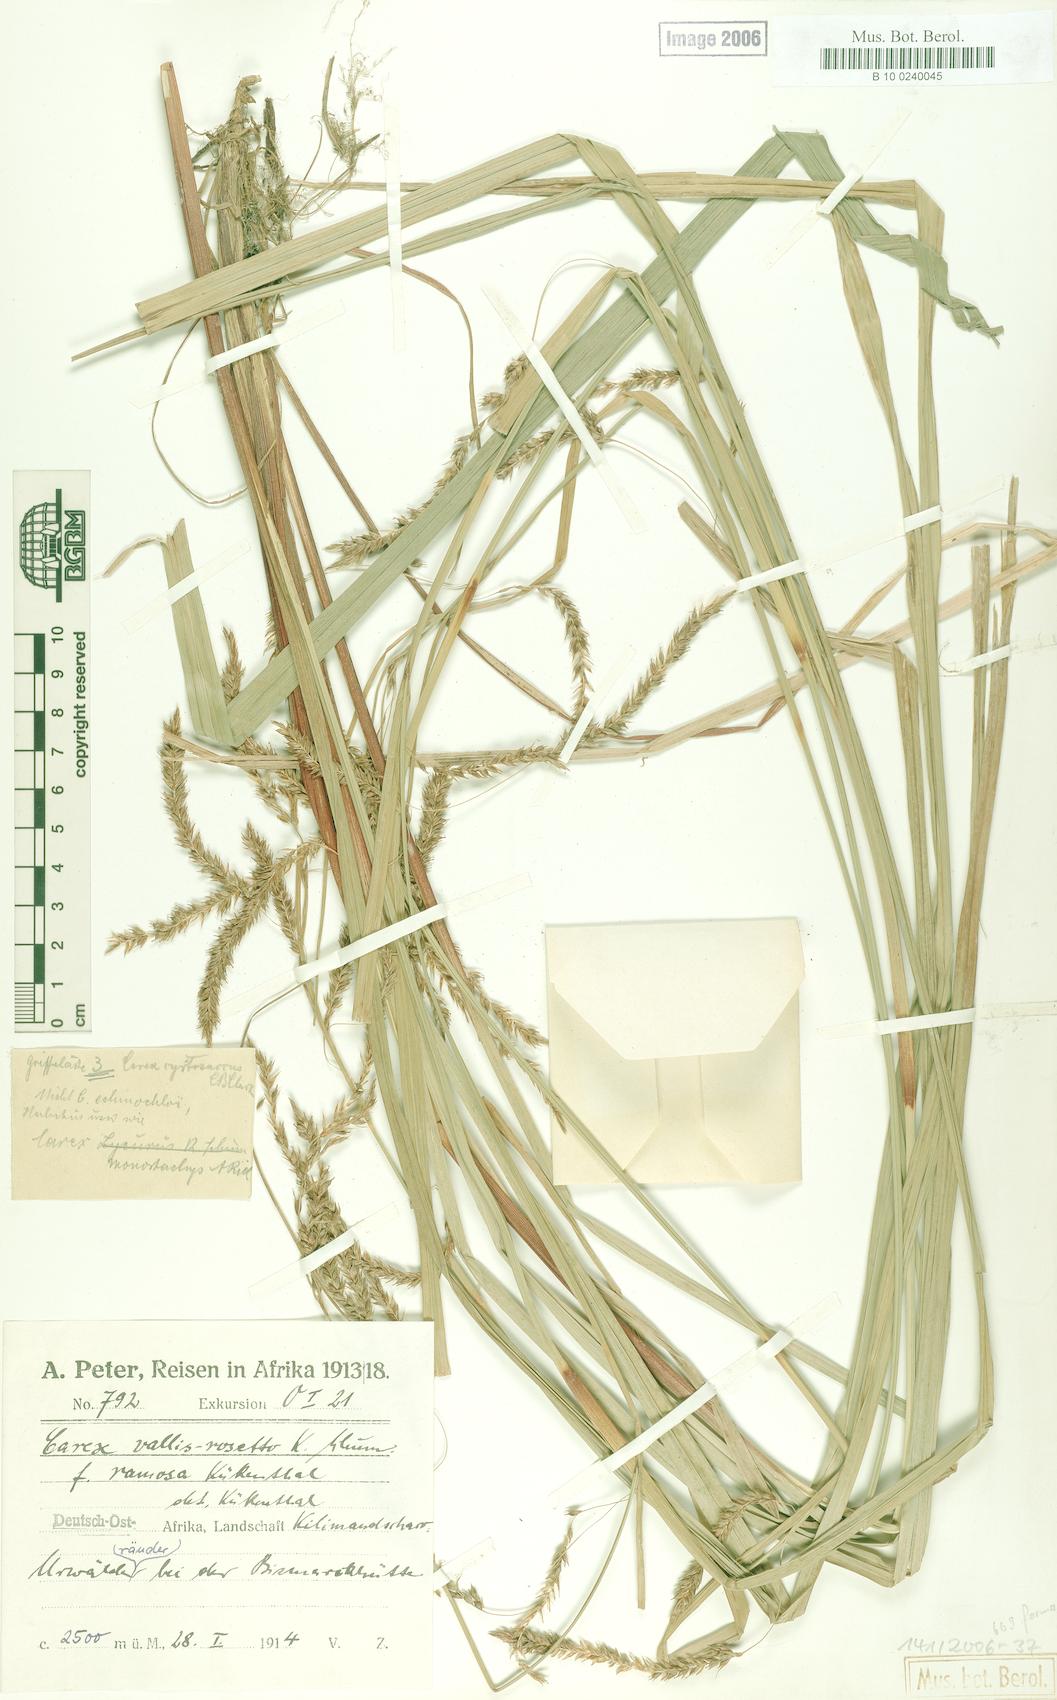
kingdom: Plantae
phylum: Tracheophyta
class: Liliopsida
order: Poales
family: Cyperaceae
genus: Carex
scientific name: Carex greenwayi
